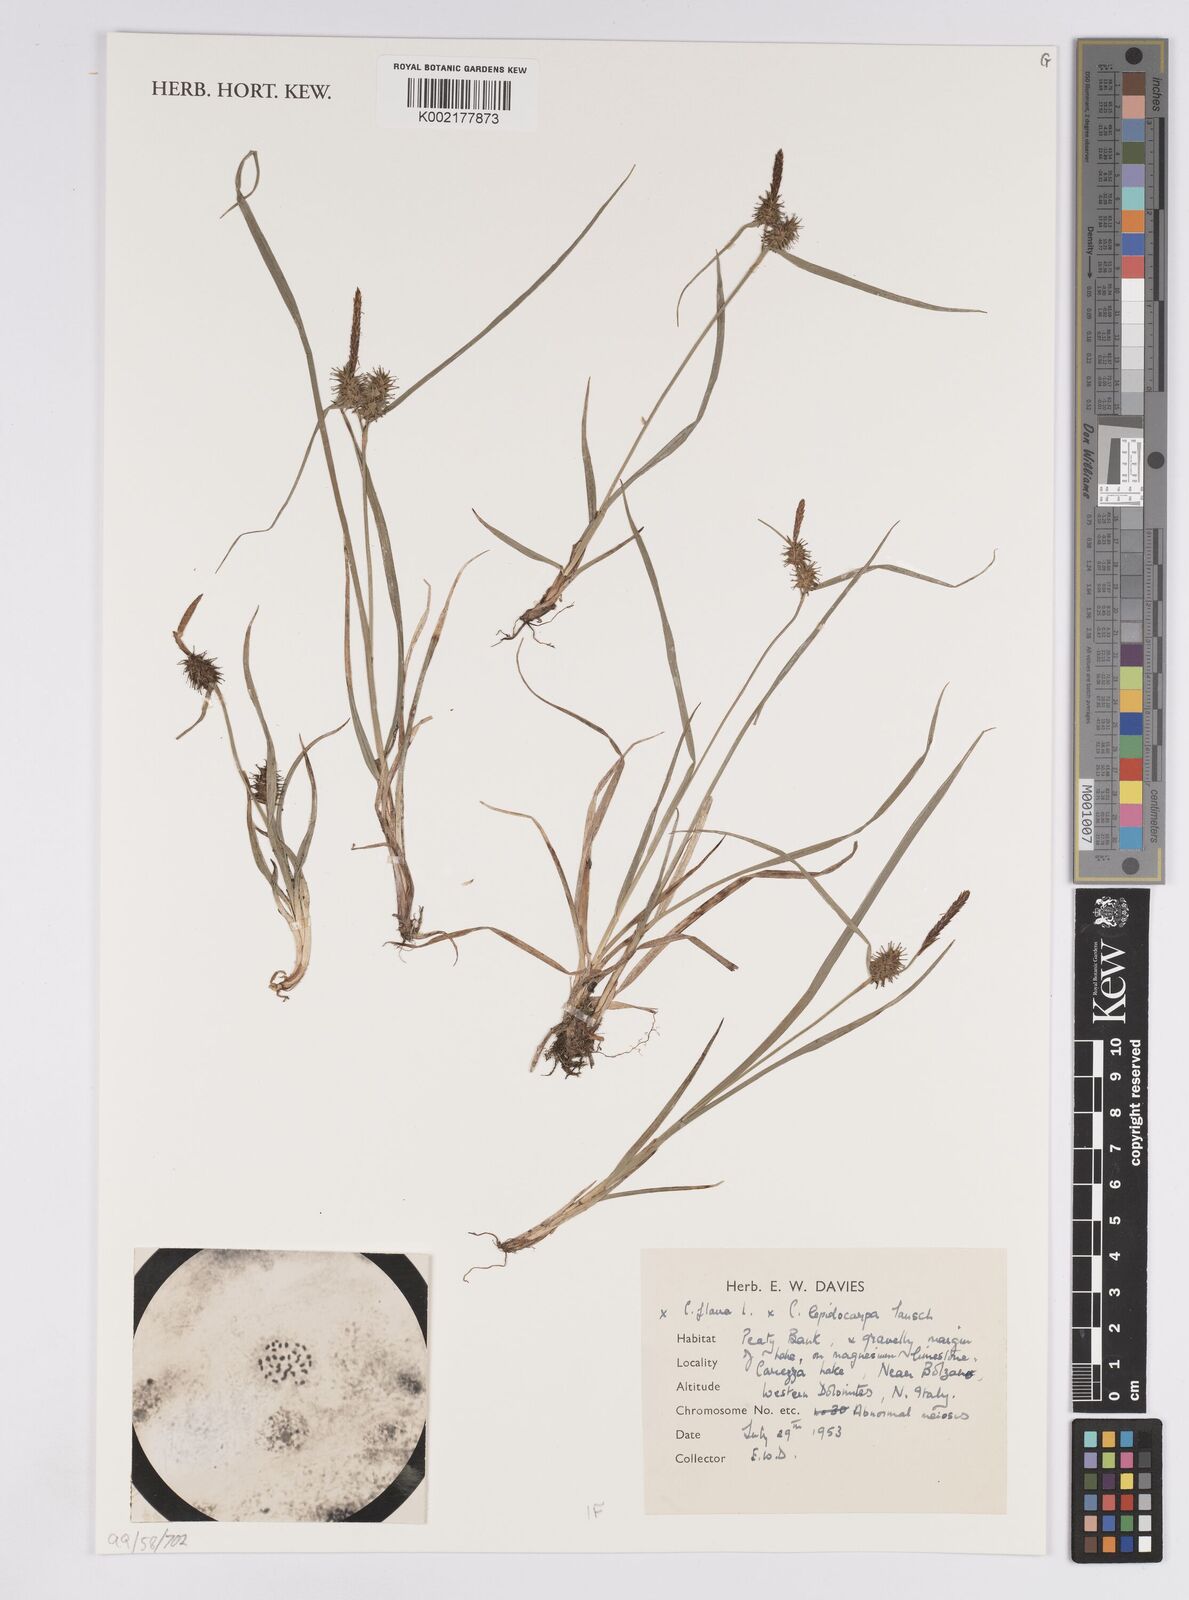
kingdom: Plantae
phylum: Tracheophyta
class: Liliopsida
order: Poales
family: Cyperaceae
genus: Carex
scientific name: Carex flava
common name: Large yellow-sedge
